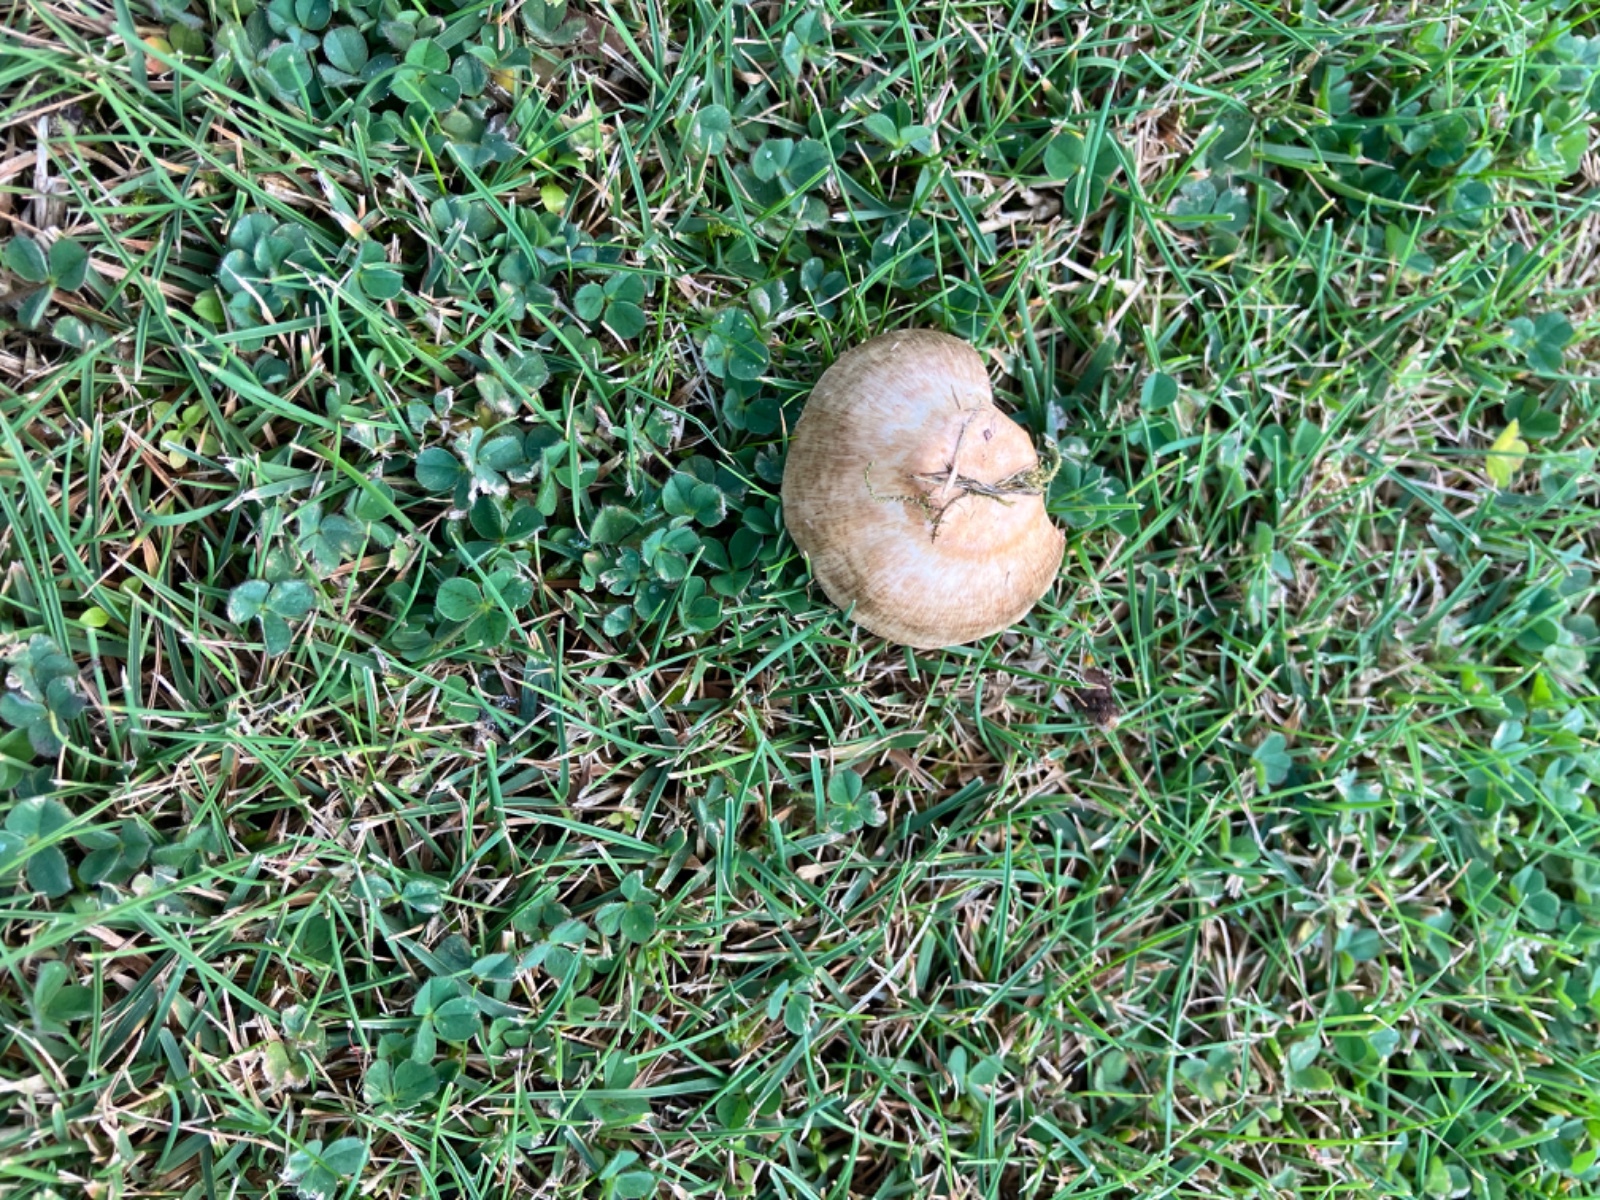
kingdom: Fungi
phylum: Basidiomycota
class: Agaricomycetes
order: Agaricales
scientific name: Agaricales
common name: champignonordenen
